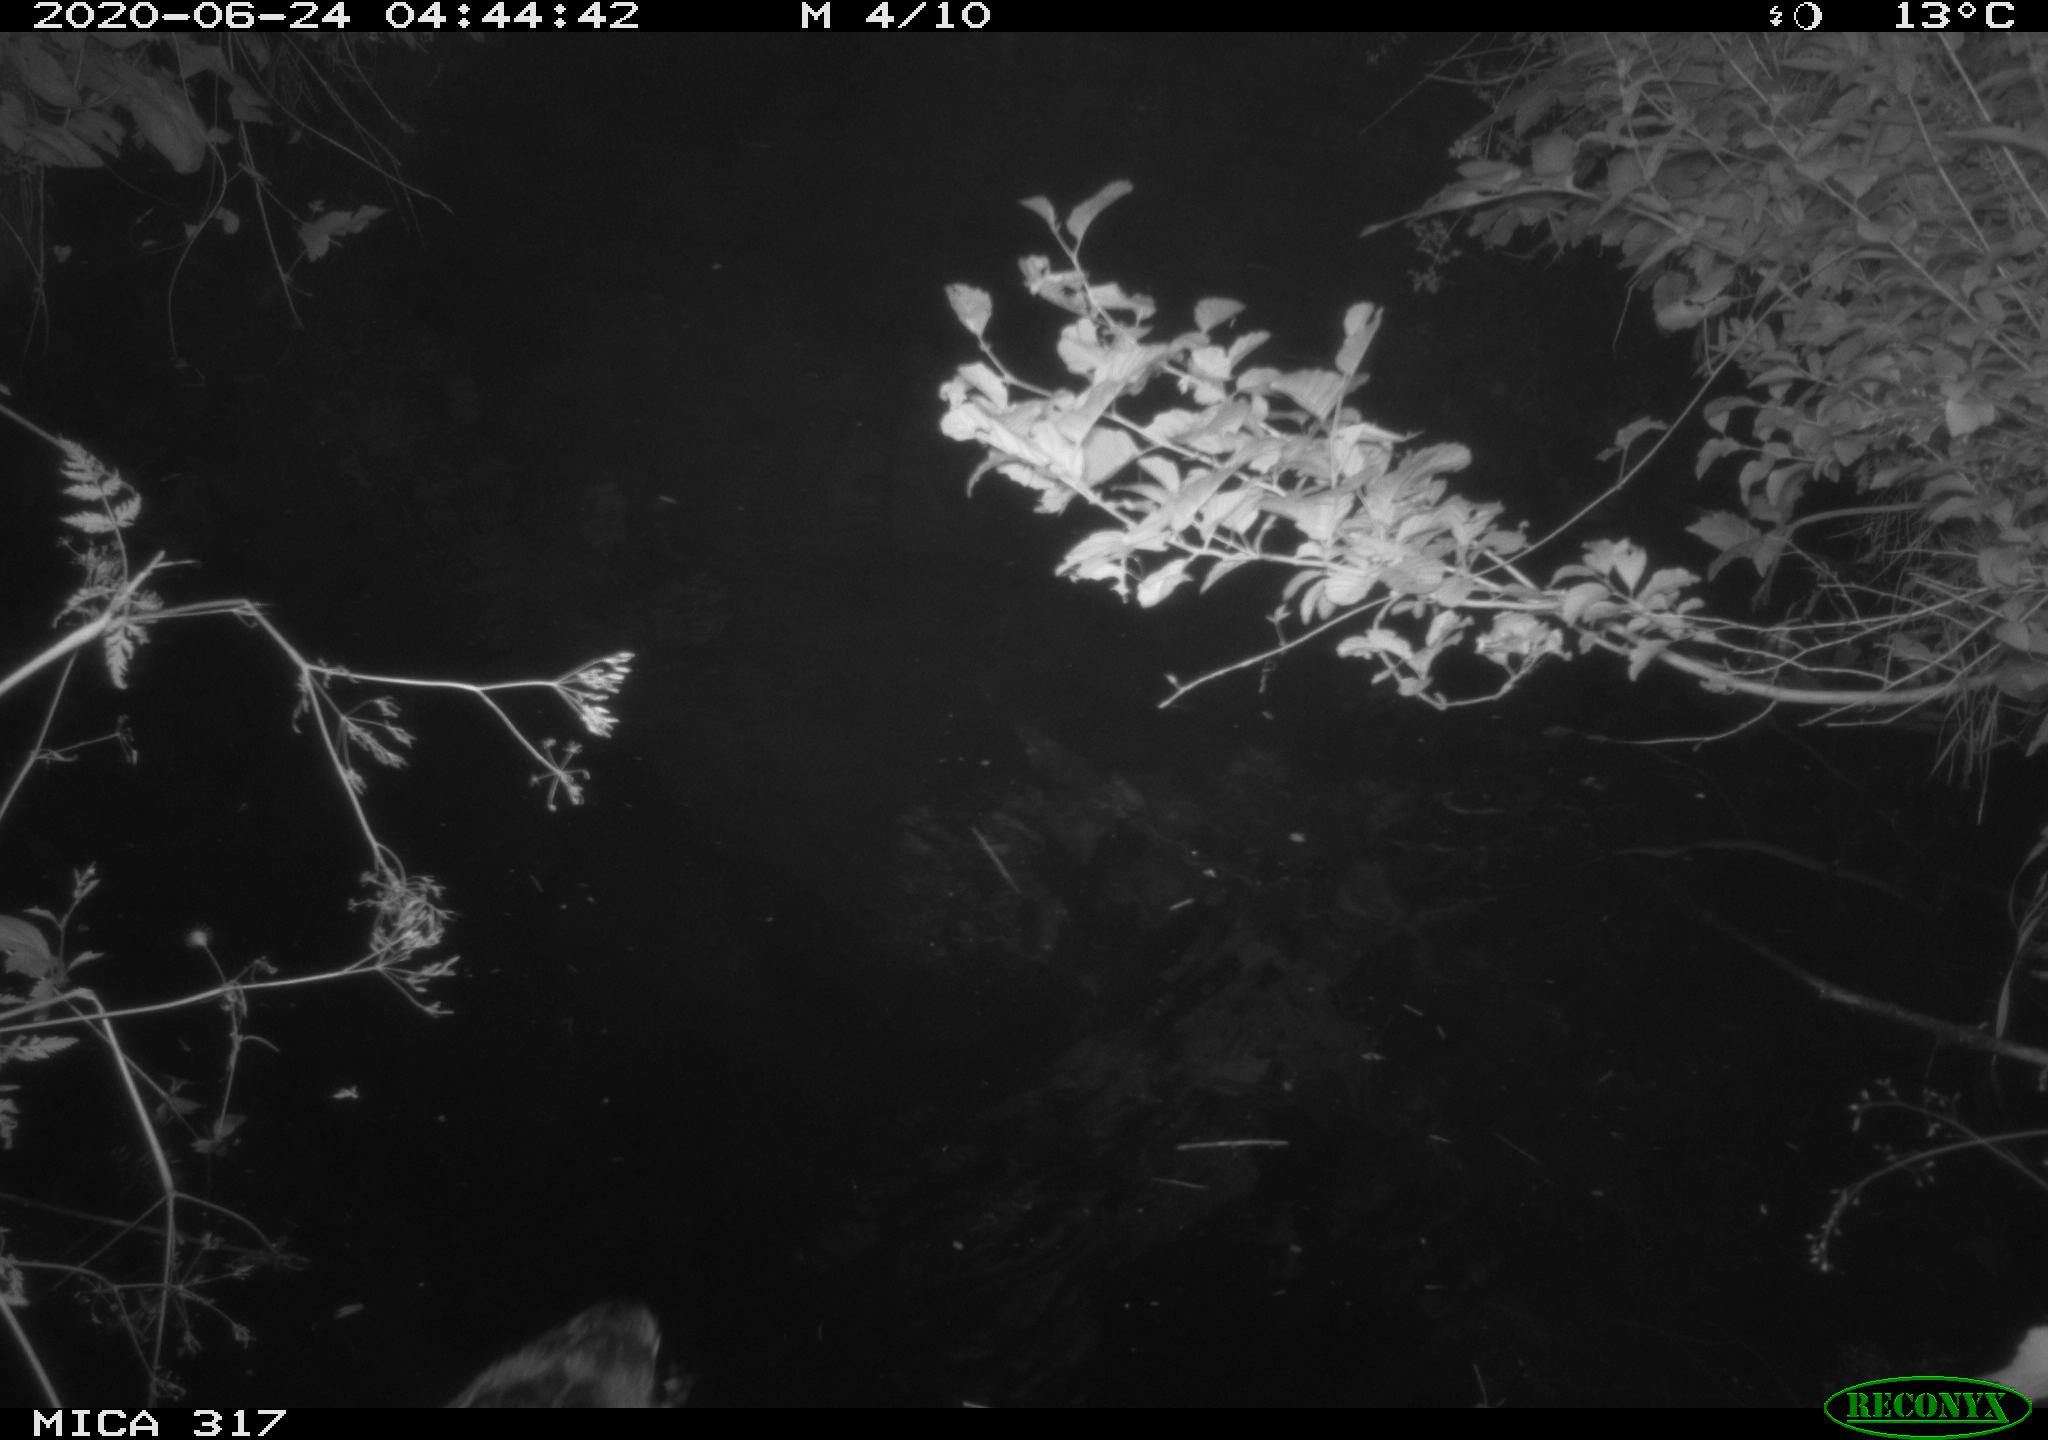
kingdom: Animalia
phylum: Chordata
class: Aves
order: Anseriformes
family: Anatidae
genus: Anas
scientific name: Anas platyrhynchos
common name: Mallard
